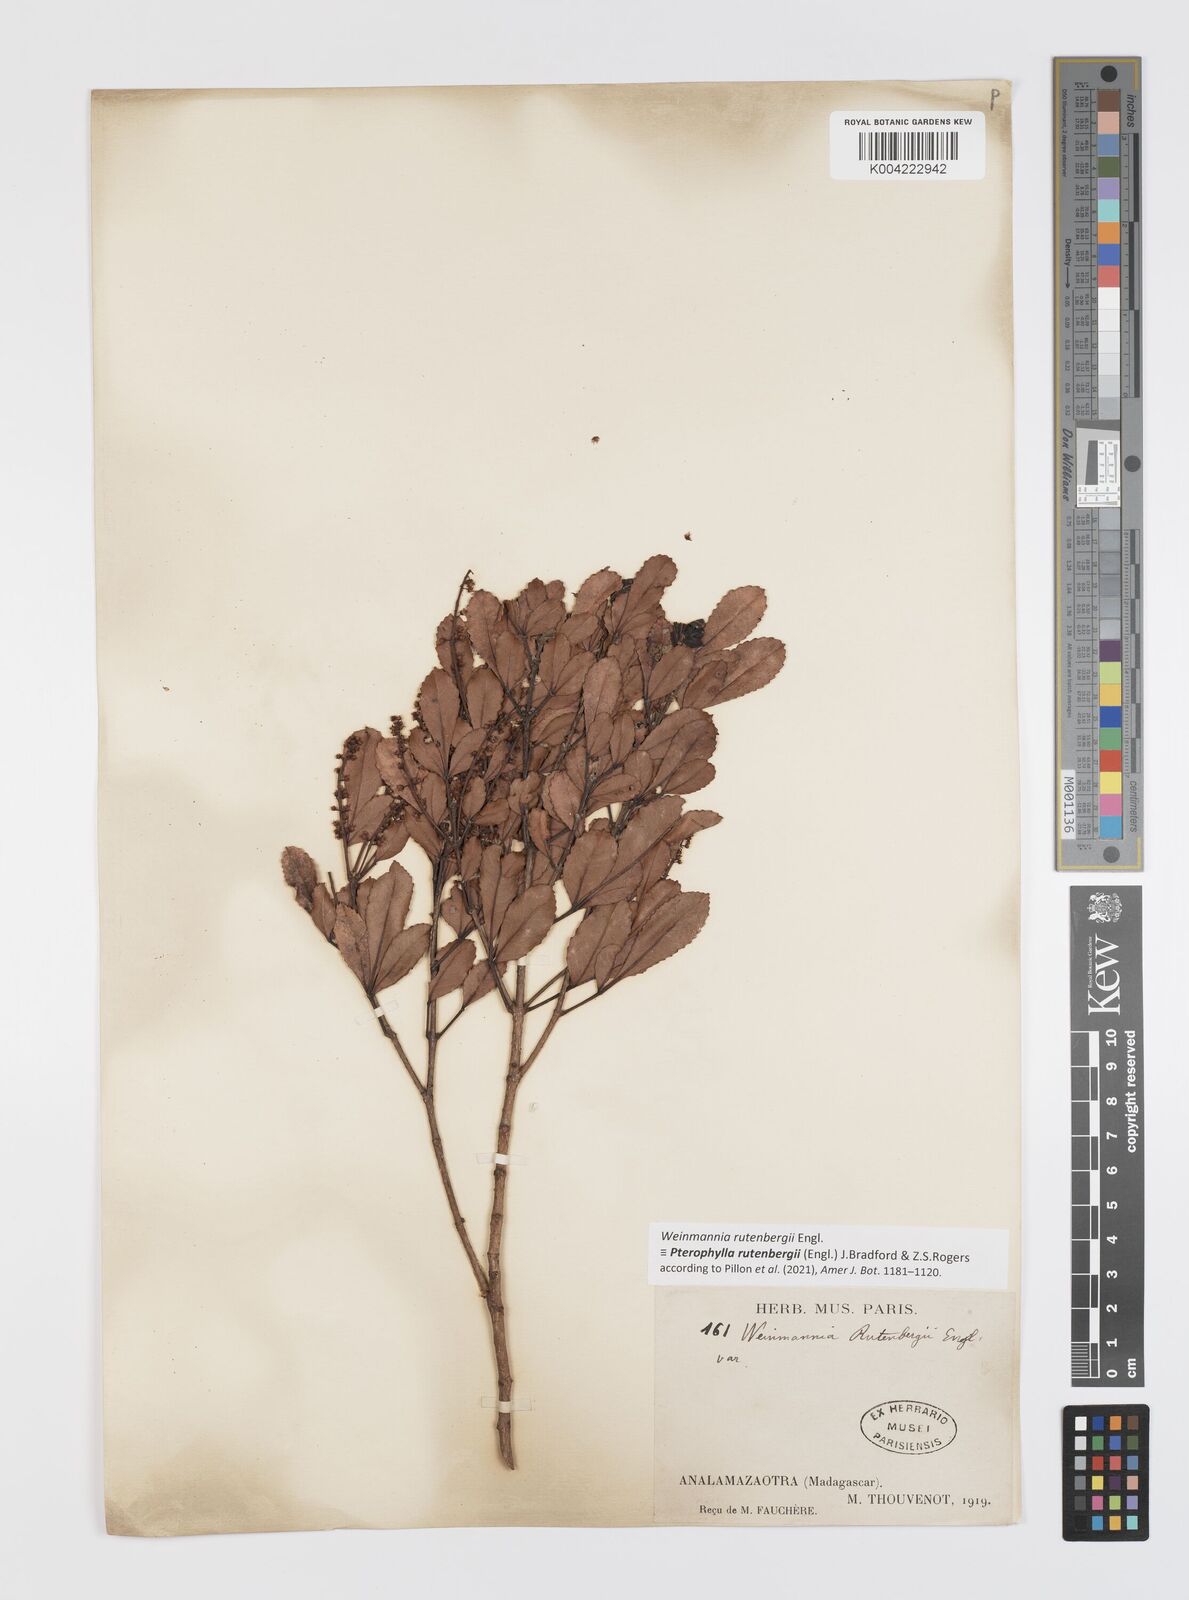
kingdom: Plantae
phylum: Tracheophyta
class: Magnoliopsida
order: Oxalidales
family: Cunoniaceae
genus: Pterophylla
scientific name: Pterophylla rutenbergii
